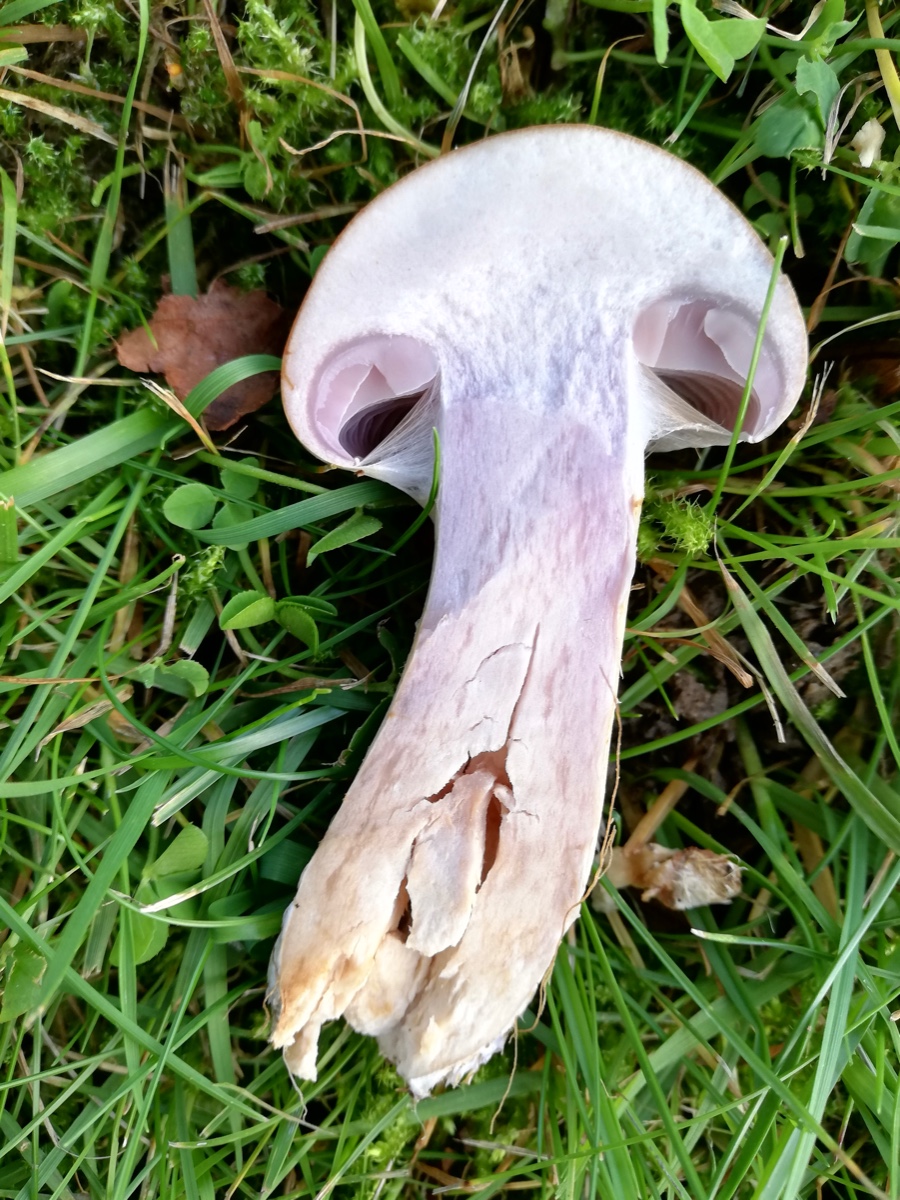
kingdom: Fungi
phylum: Basidiomycota
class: Agaricomycetes
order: Agaricales
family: Cortinariaceae
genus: Cortinarius
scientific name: Cortinarius
